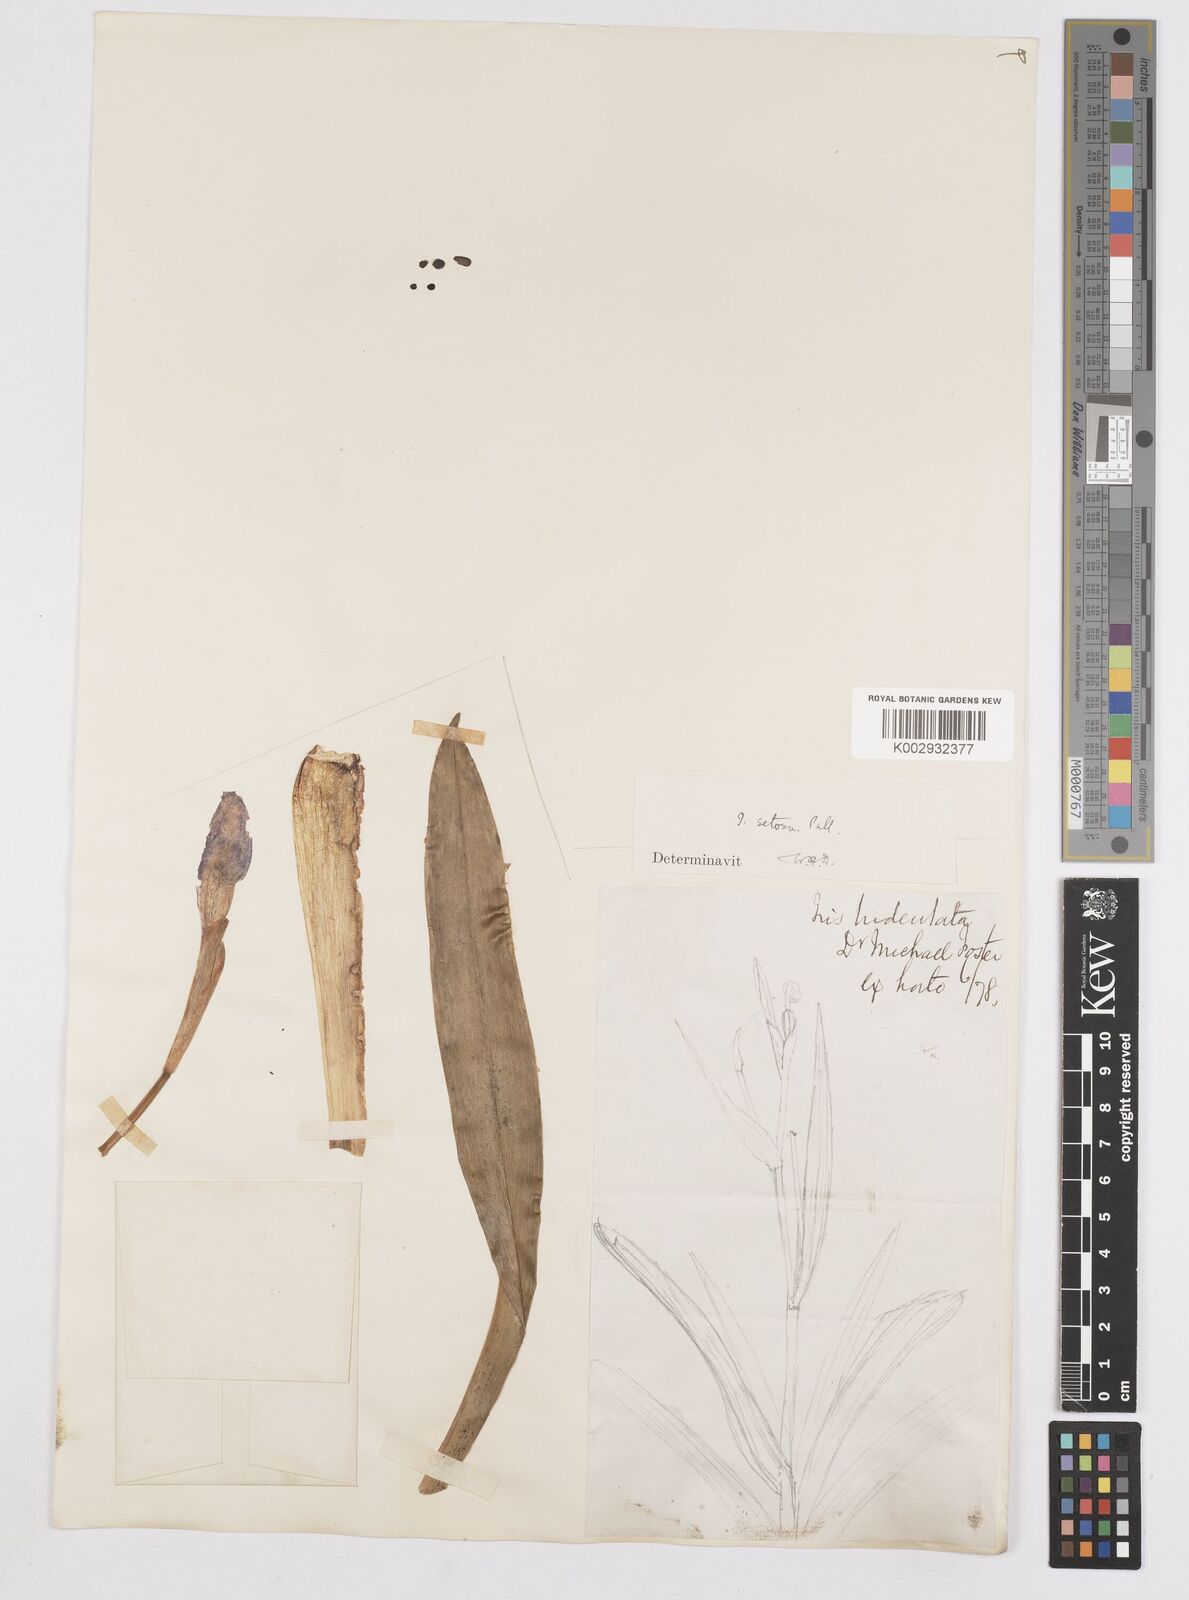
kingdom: Plantae
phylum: Tracheophyta
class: Liliopsida
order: Asparagales
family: Iridaceae
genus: Iris
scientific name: Iris setosa
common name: Arctic blue flag
